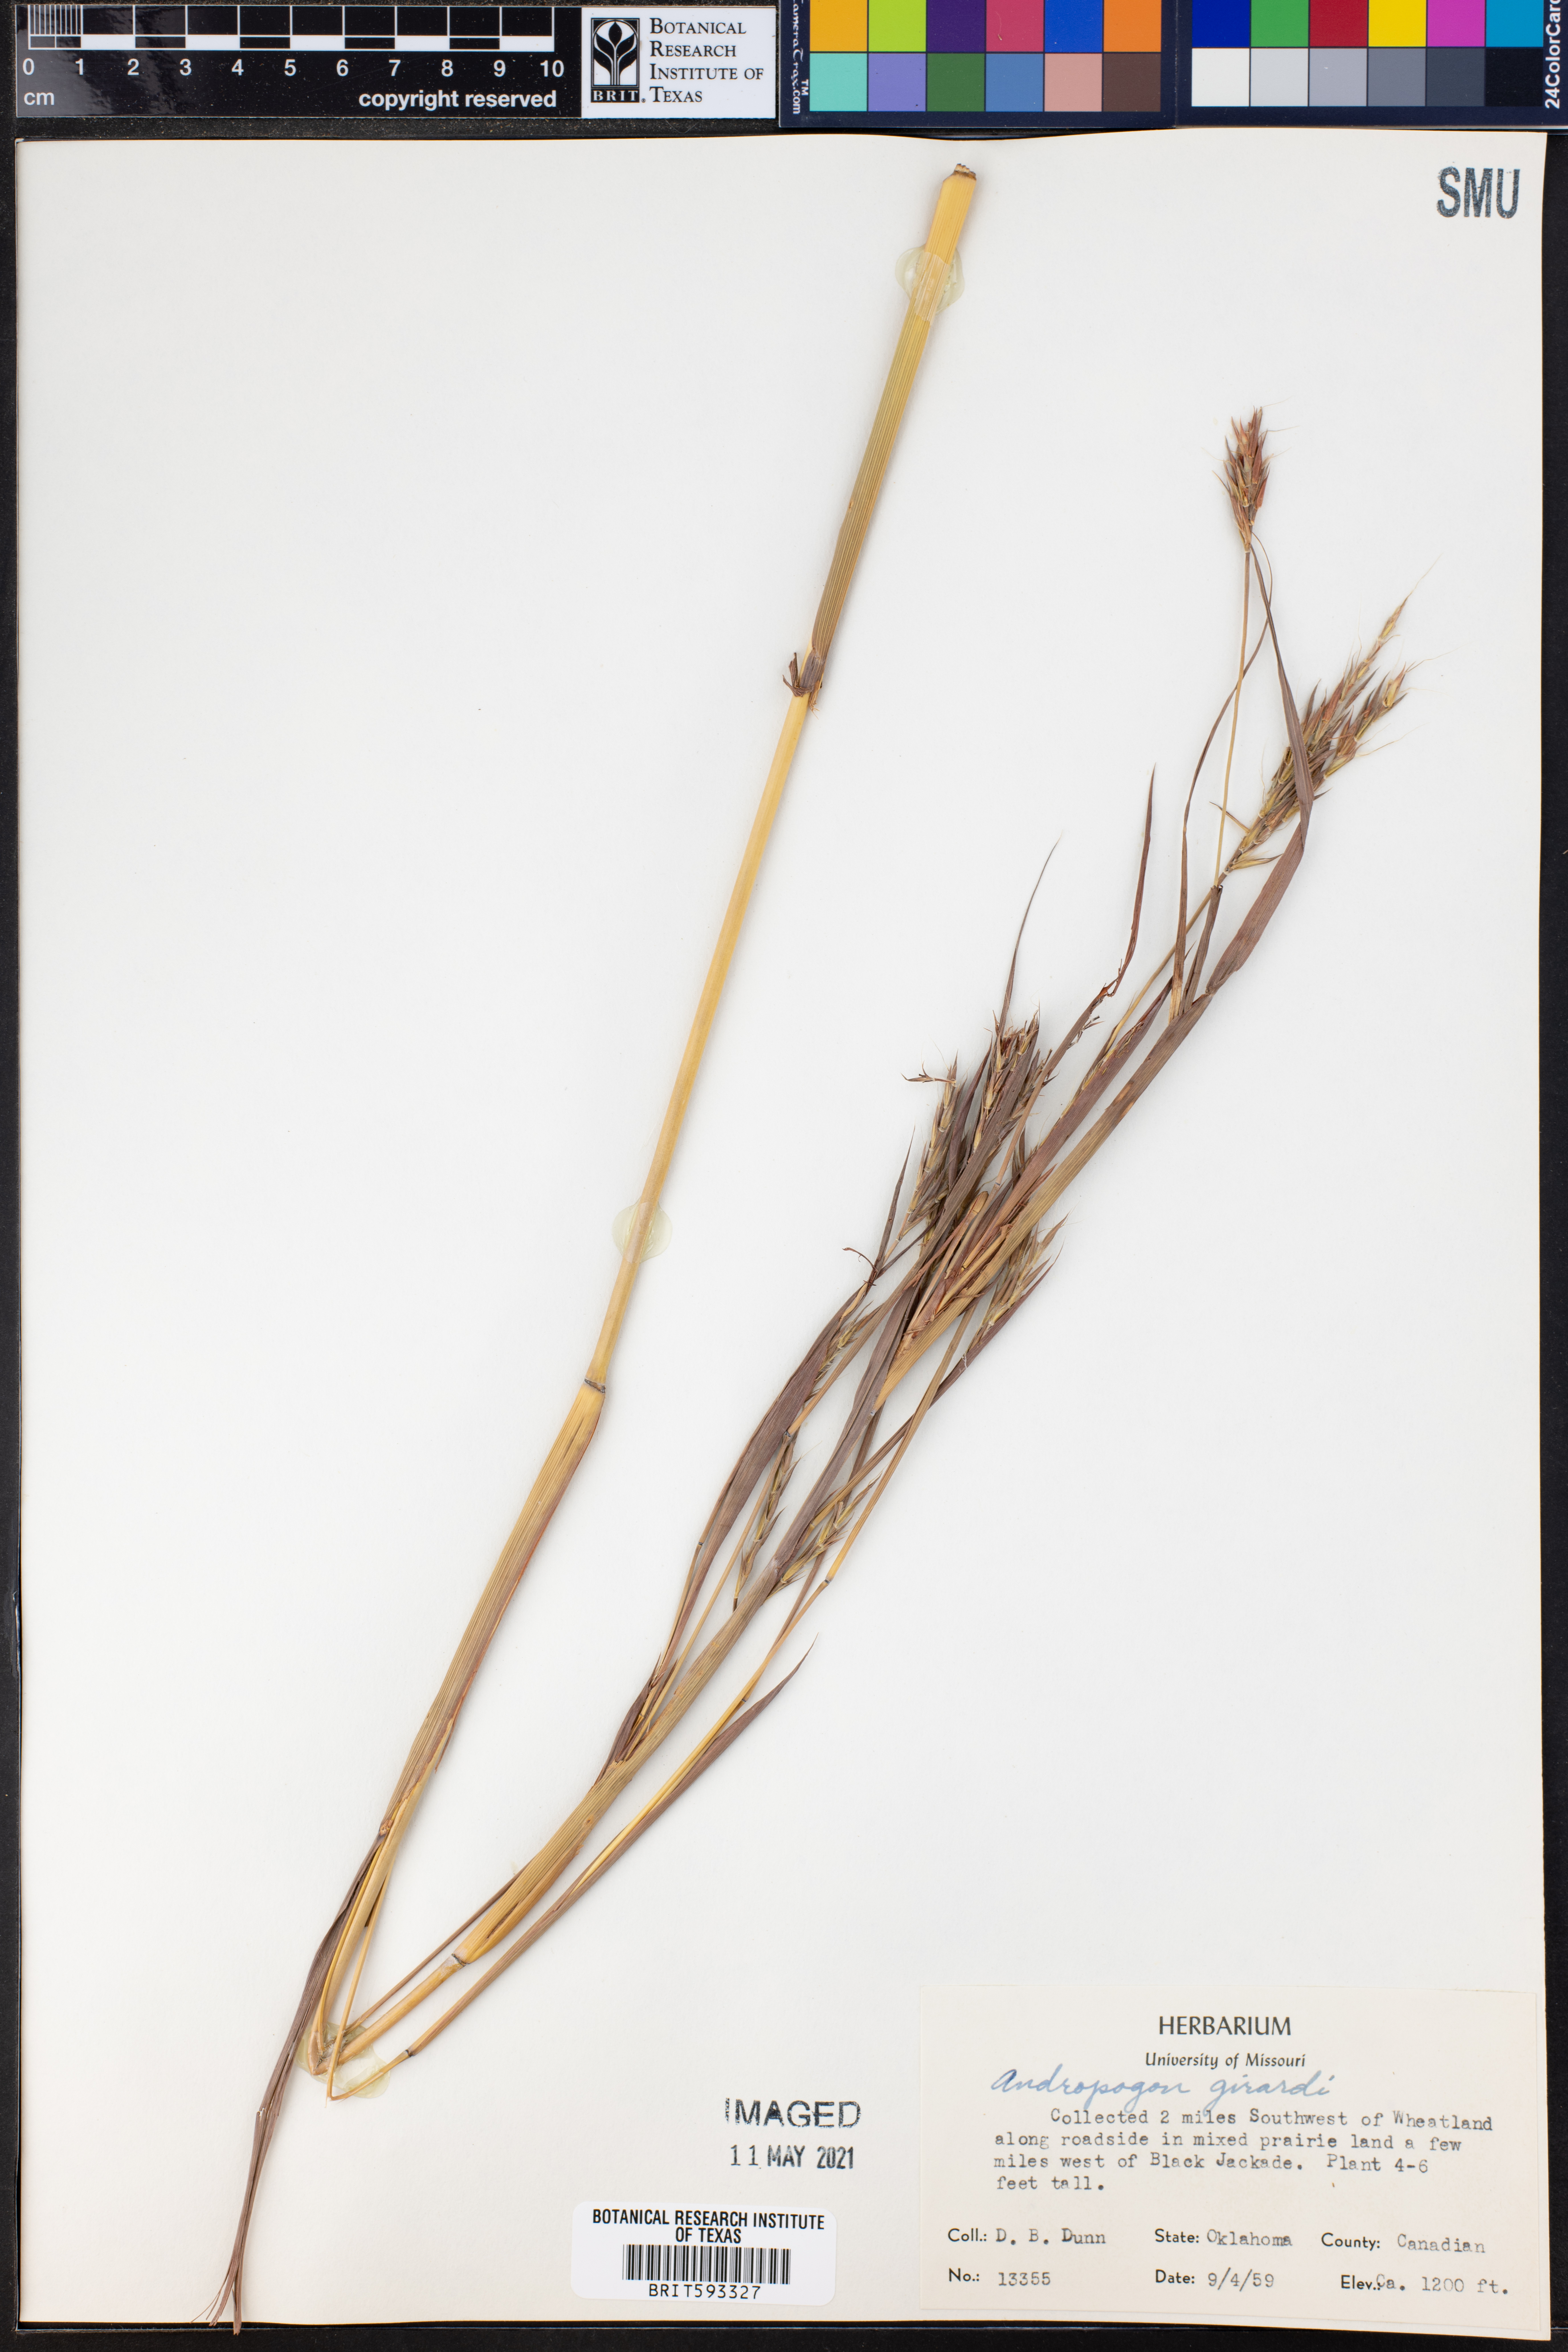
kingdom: Plantae
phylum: Tracheophyta
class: Liliopsida
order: Poales
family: Poaceae
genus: Andropogon
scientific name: Andropogon gerardi
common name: Big bluestem
